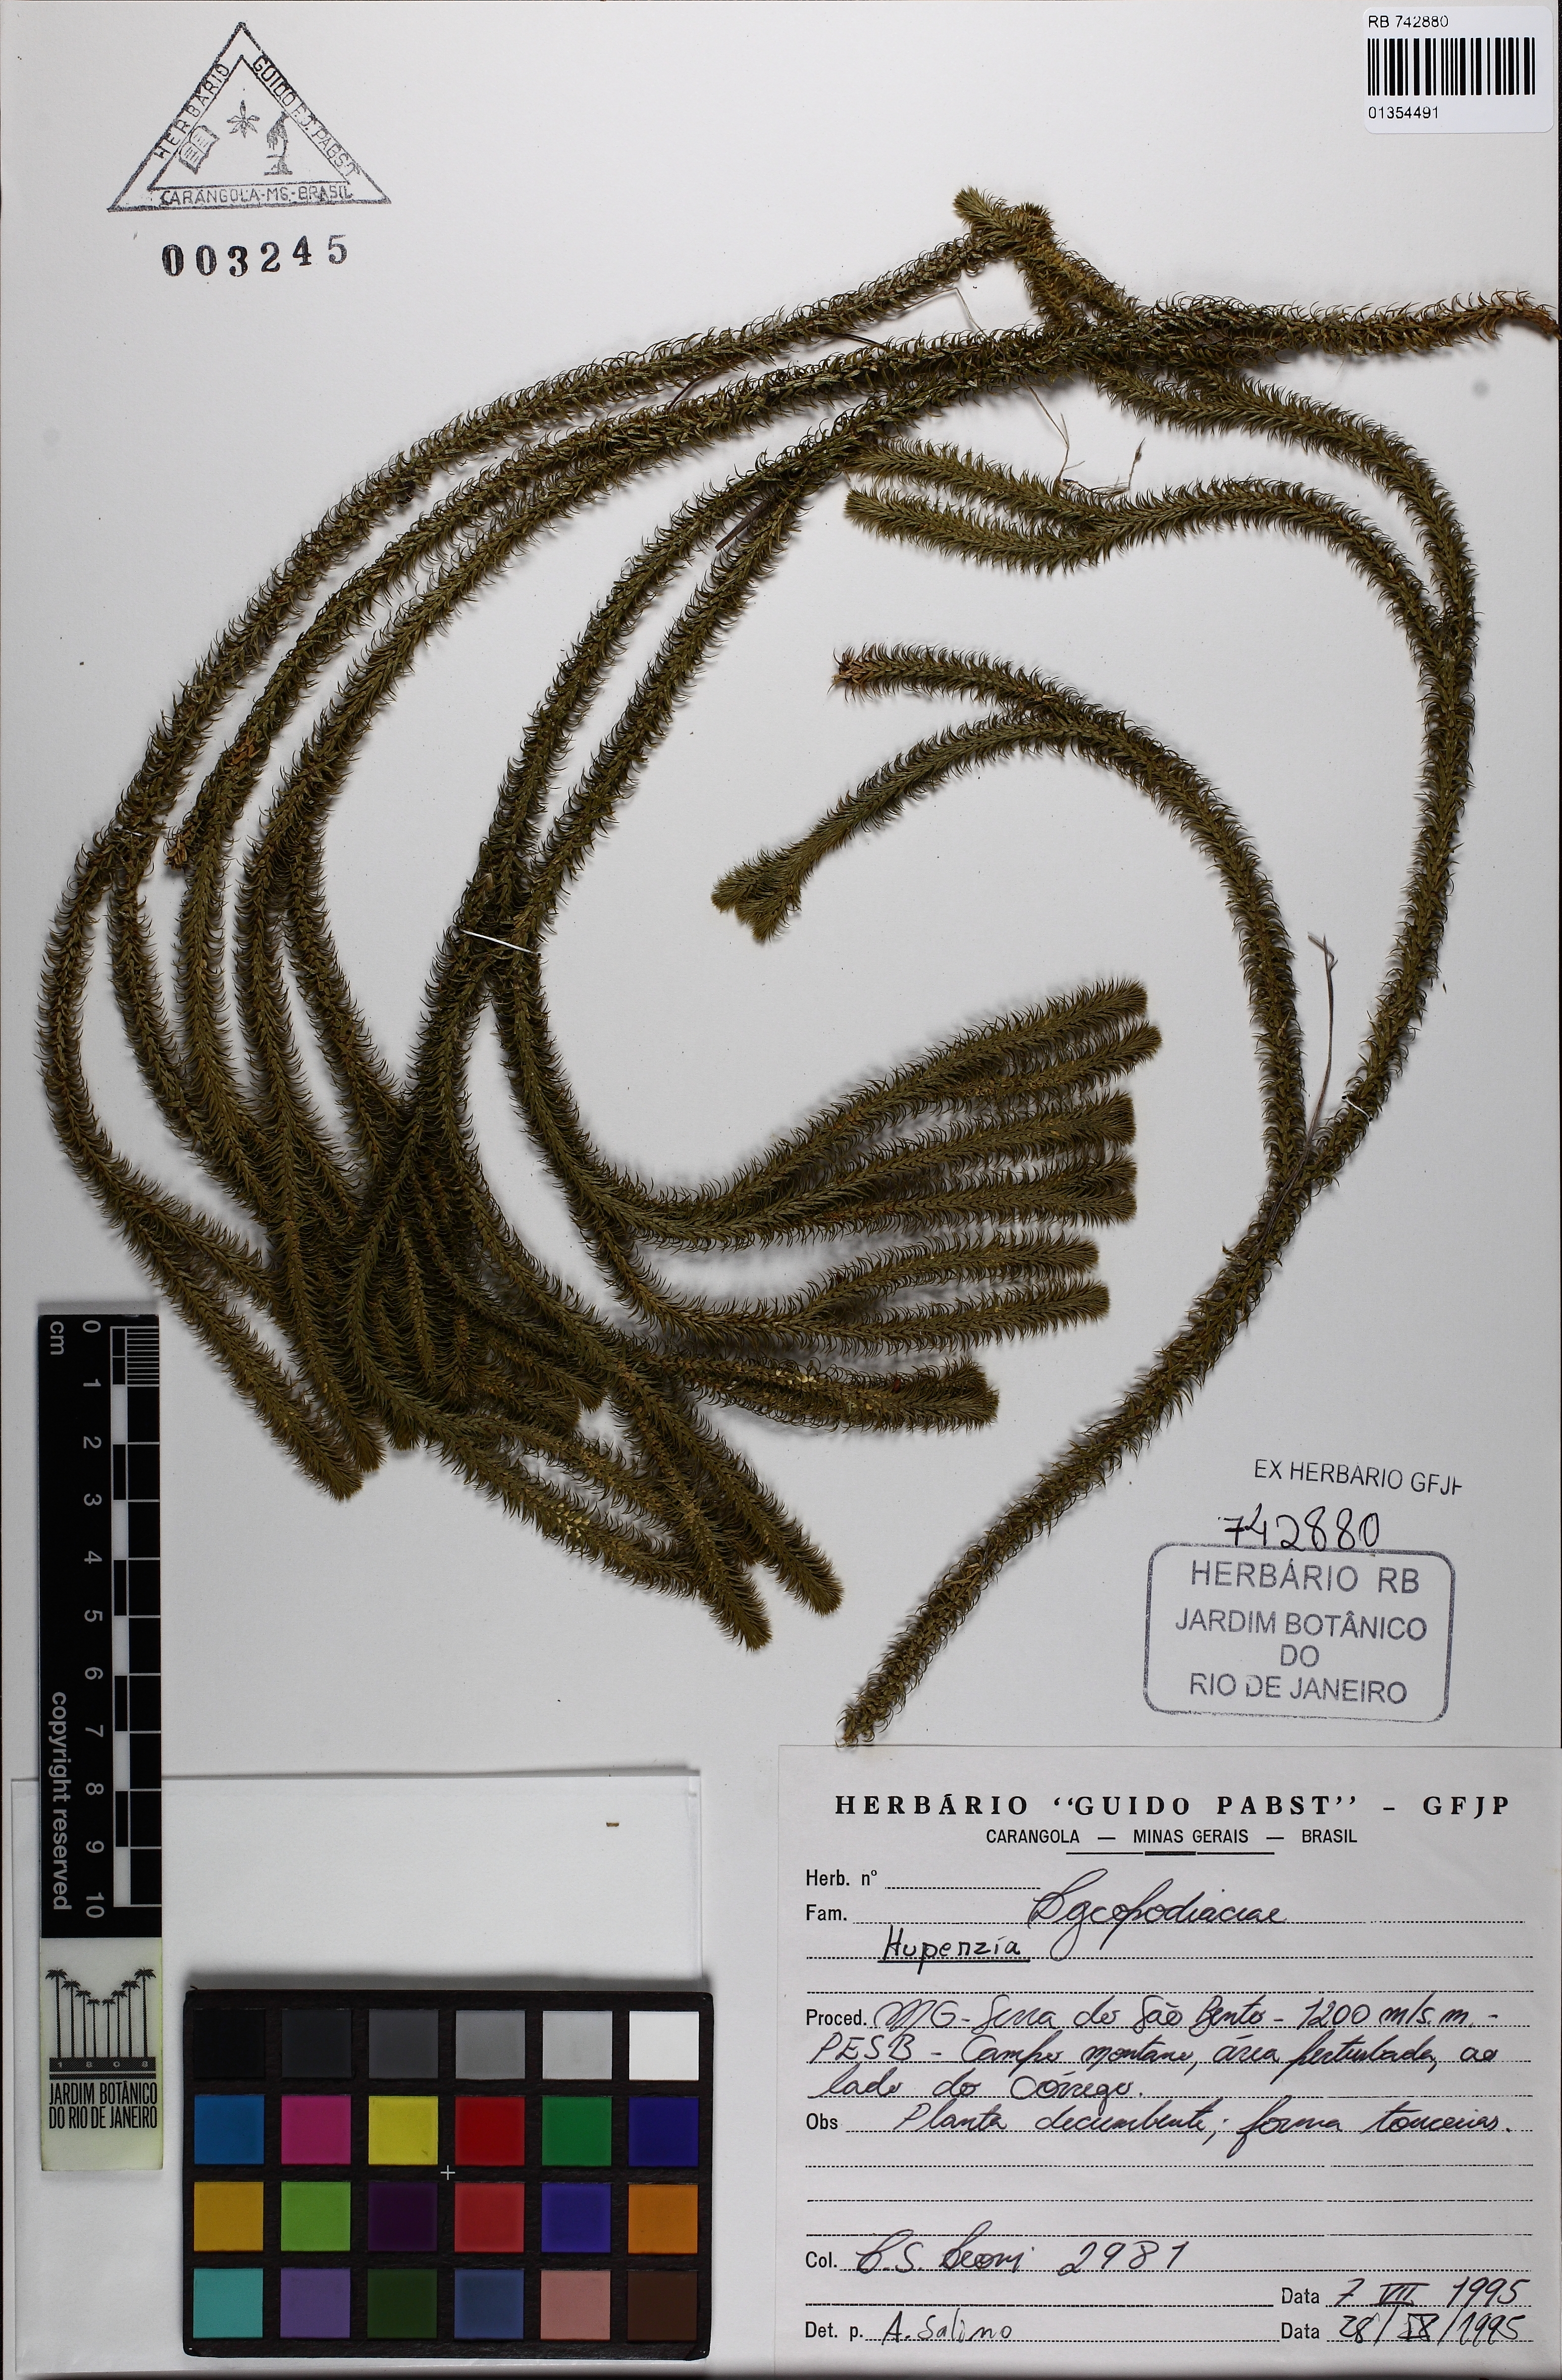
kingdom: Plantae
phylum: Tracheophyta
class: Lycopodiopsida
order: Lycopodiales
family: Lycopodiaceae
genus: Phlegmariurus
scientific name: Phlegmariurus pungentifolius
